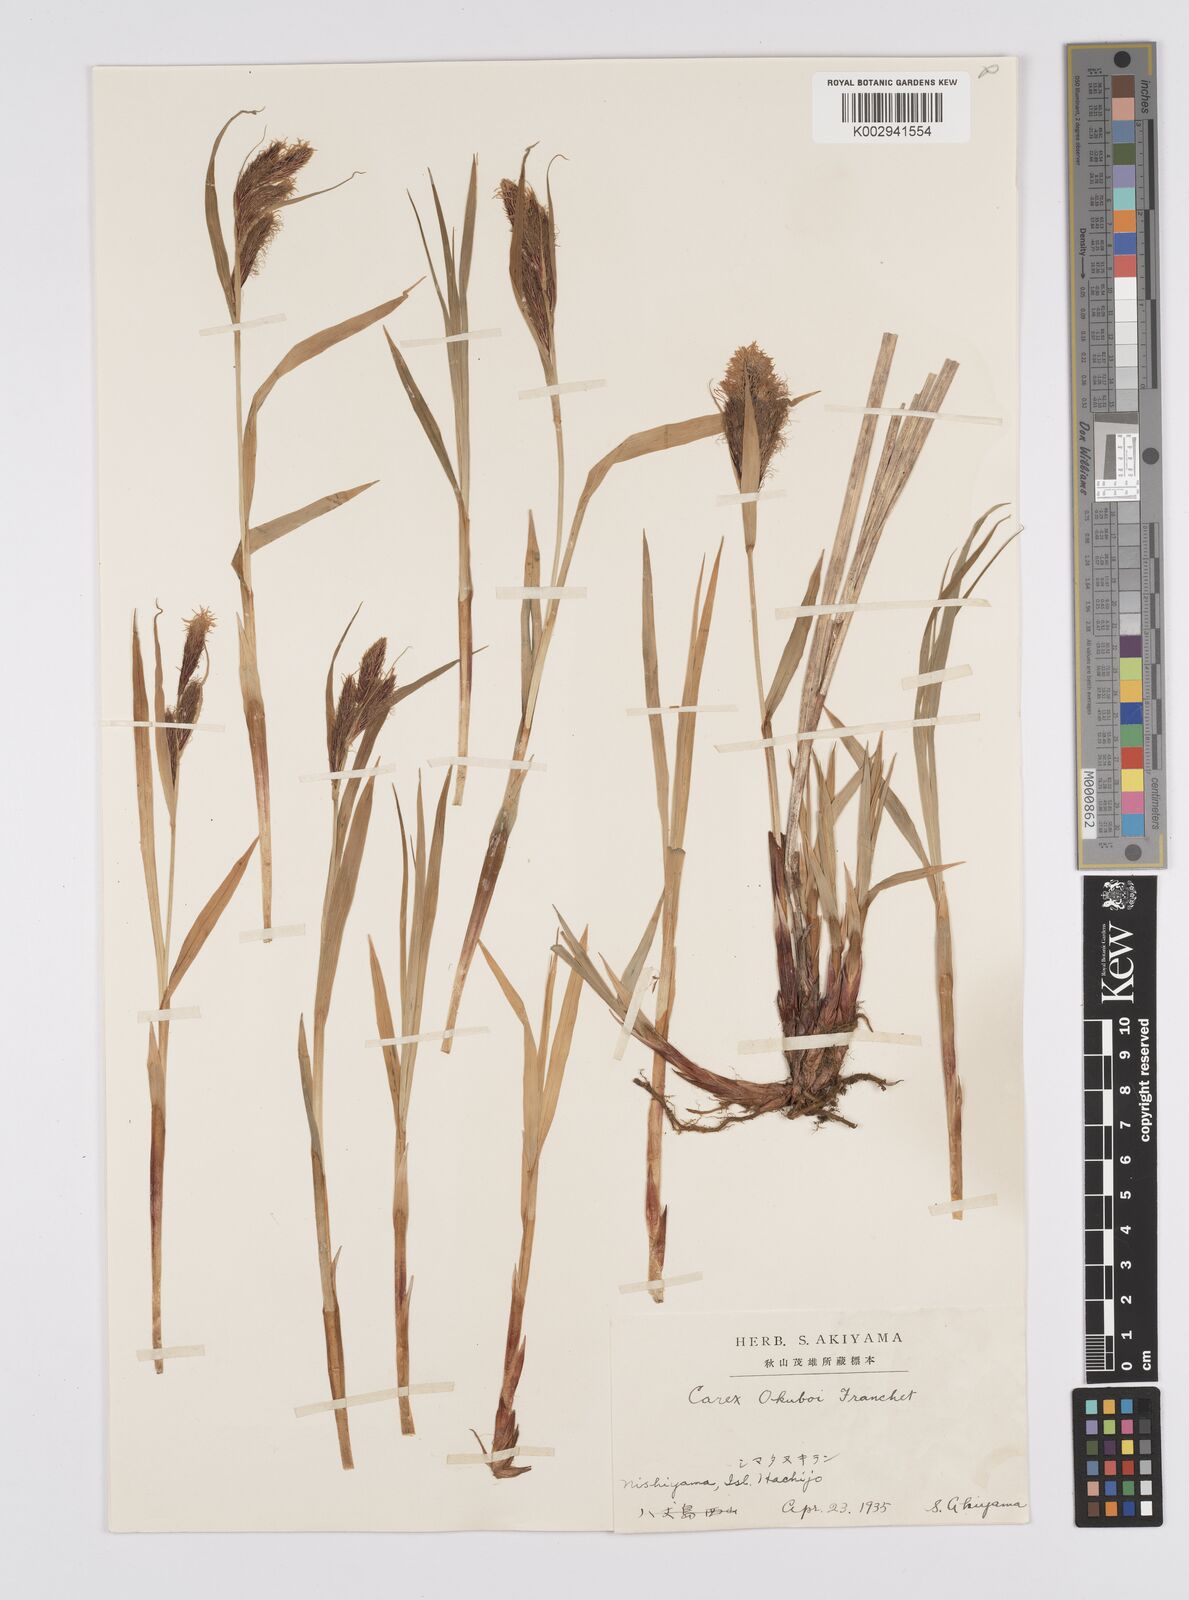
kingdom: Plantae
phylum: Tracheophyta
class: Liliopsida
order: Poales
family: Cyperaceae
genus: Carex
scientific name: Carex doenitzii
